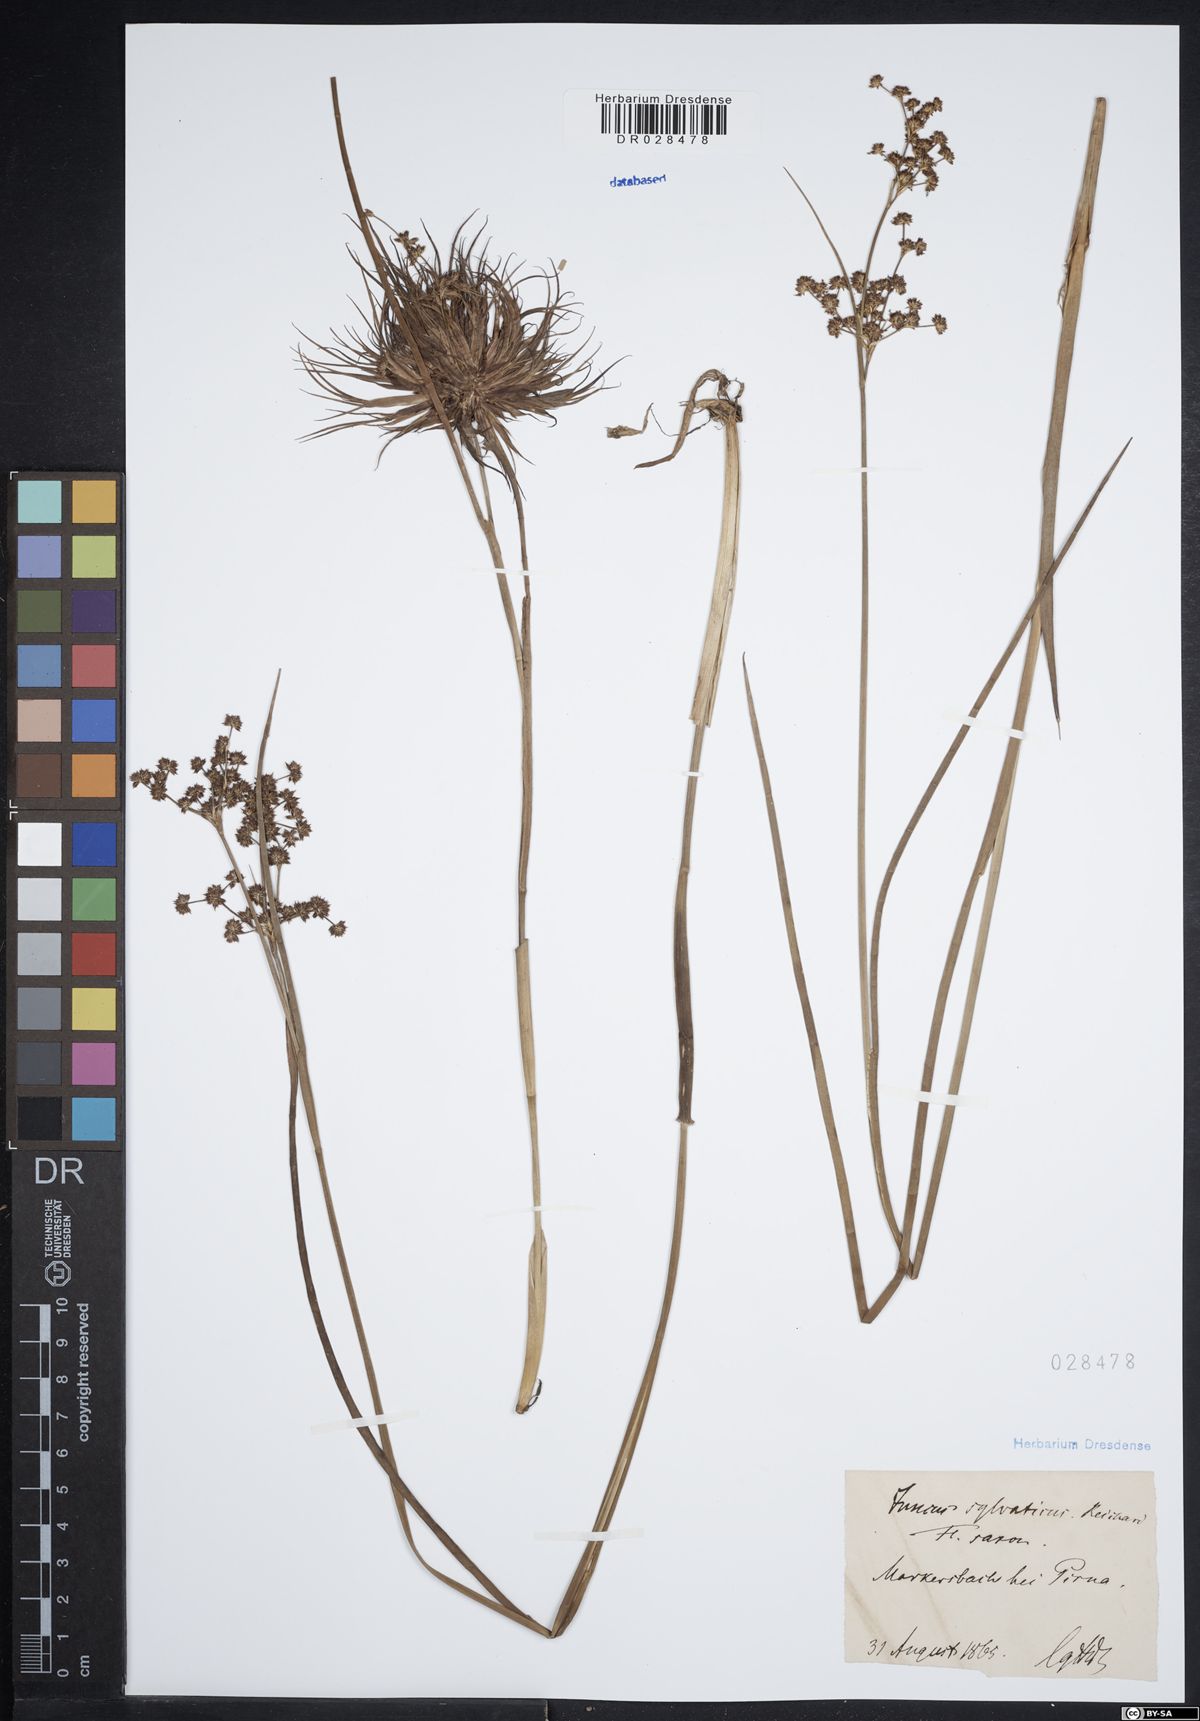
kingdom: Plantae
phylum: Tracheophyta
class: Liliopsida
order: Poales
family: Juncaceae
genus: Juncus
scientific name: Juncus acutiflorus
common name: Sharp-flowered rush
